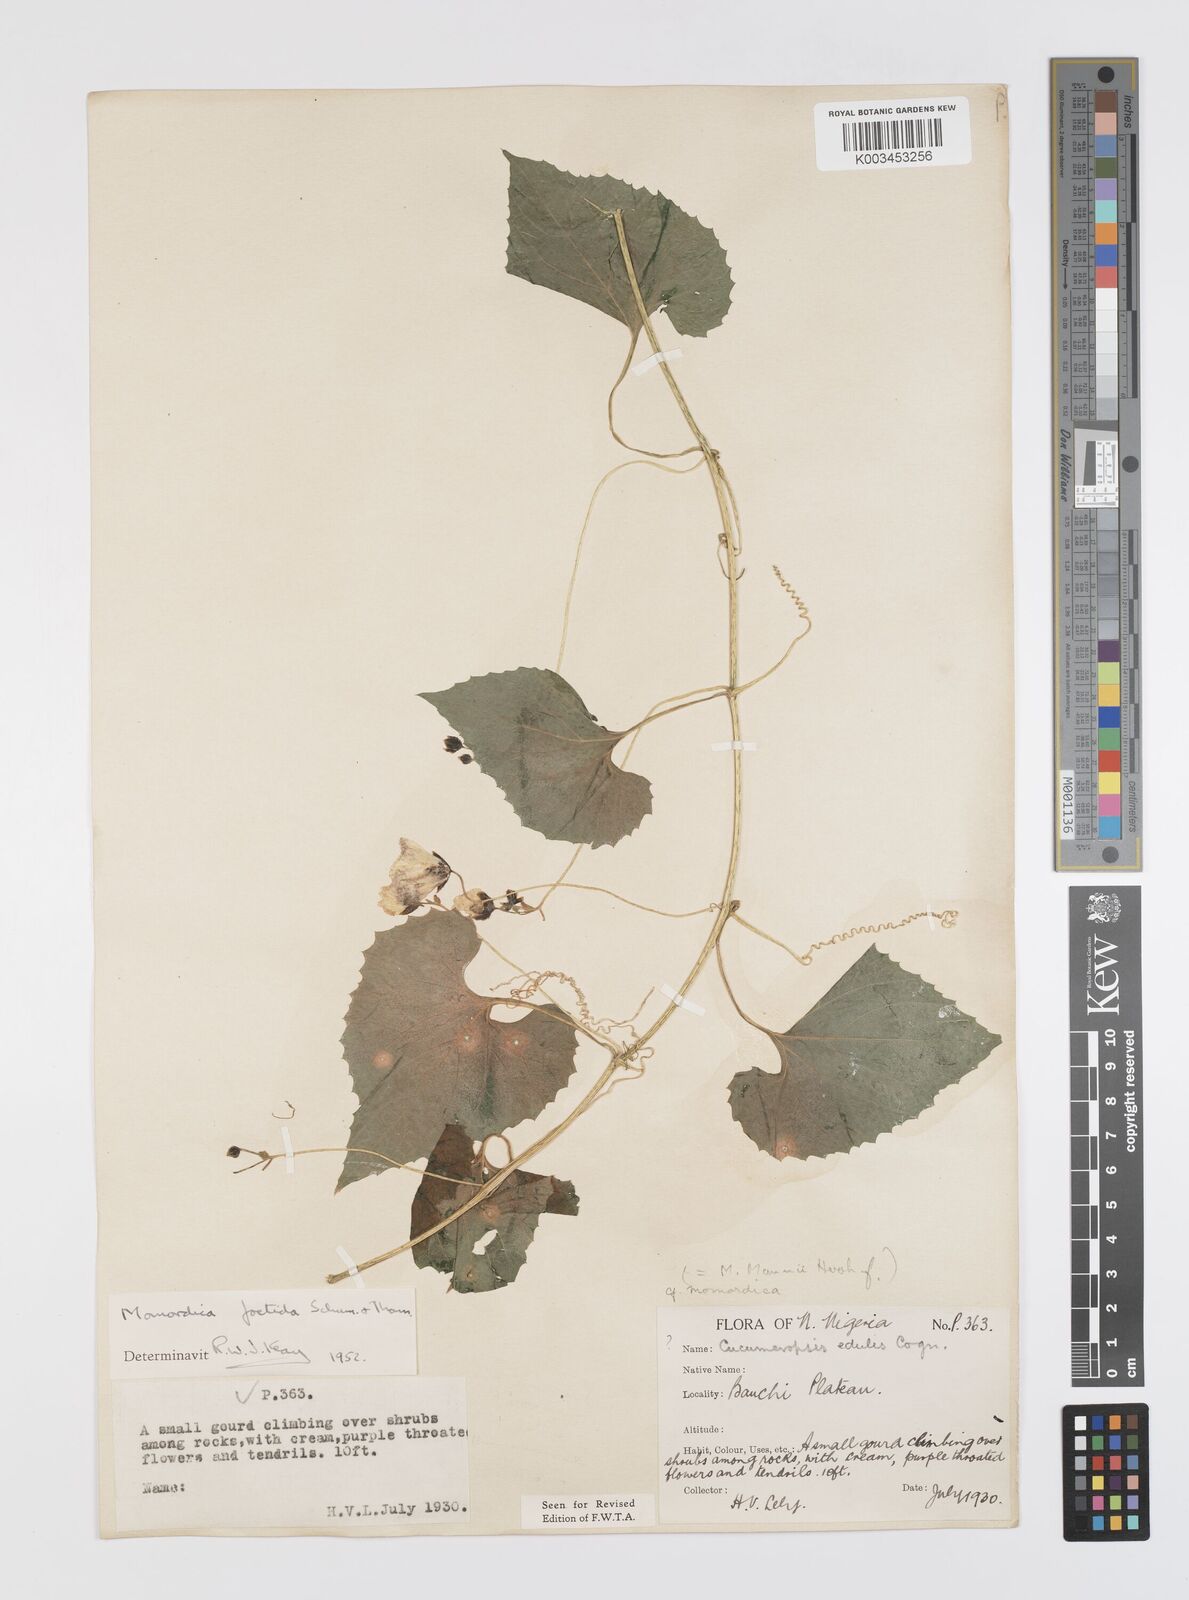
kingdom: Plantae
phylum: Tracheophyta
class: Magnoliopsida
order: Cucurbitales
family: Cucurbitaceae
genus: Momordica
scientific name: Momordica foetida
